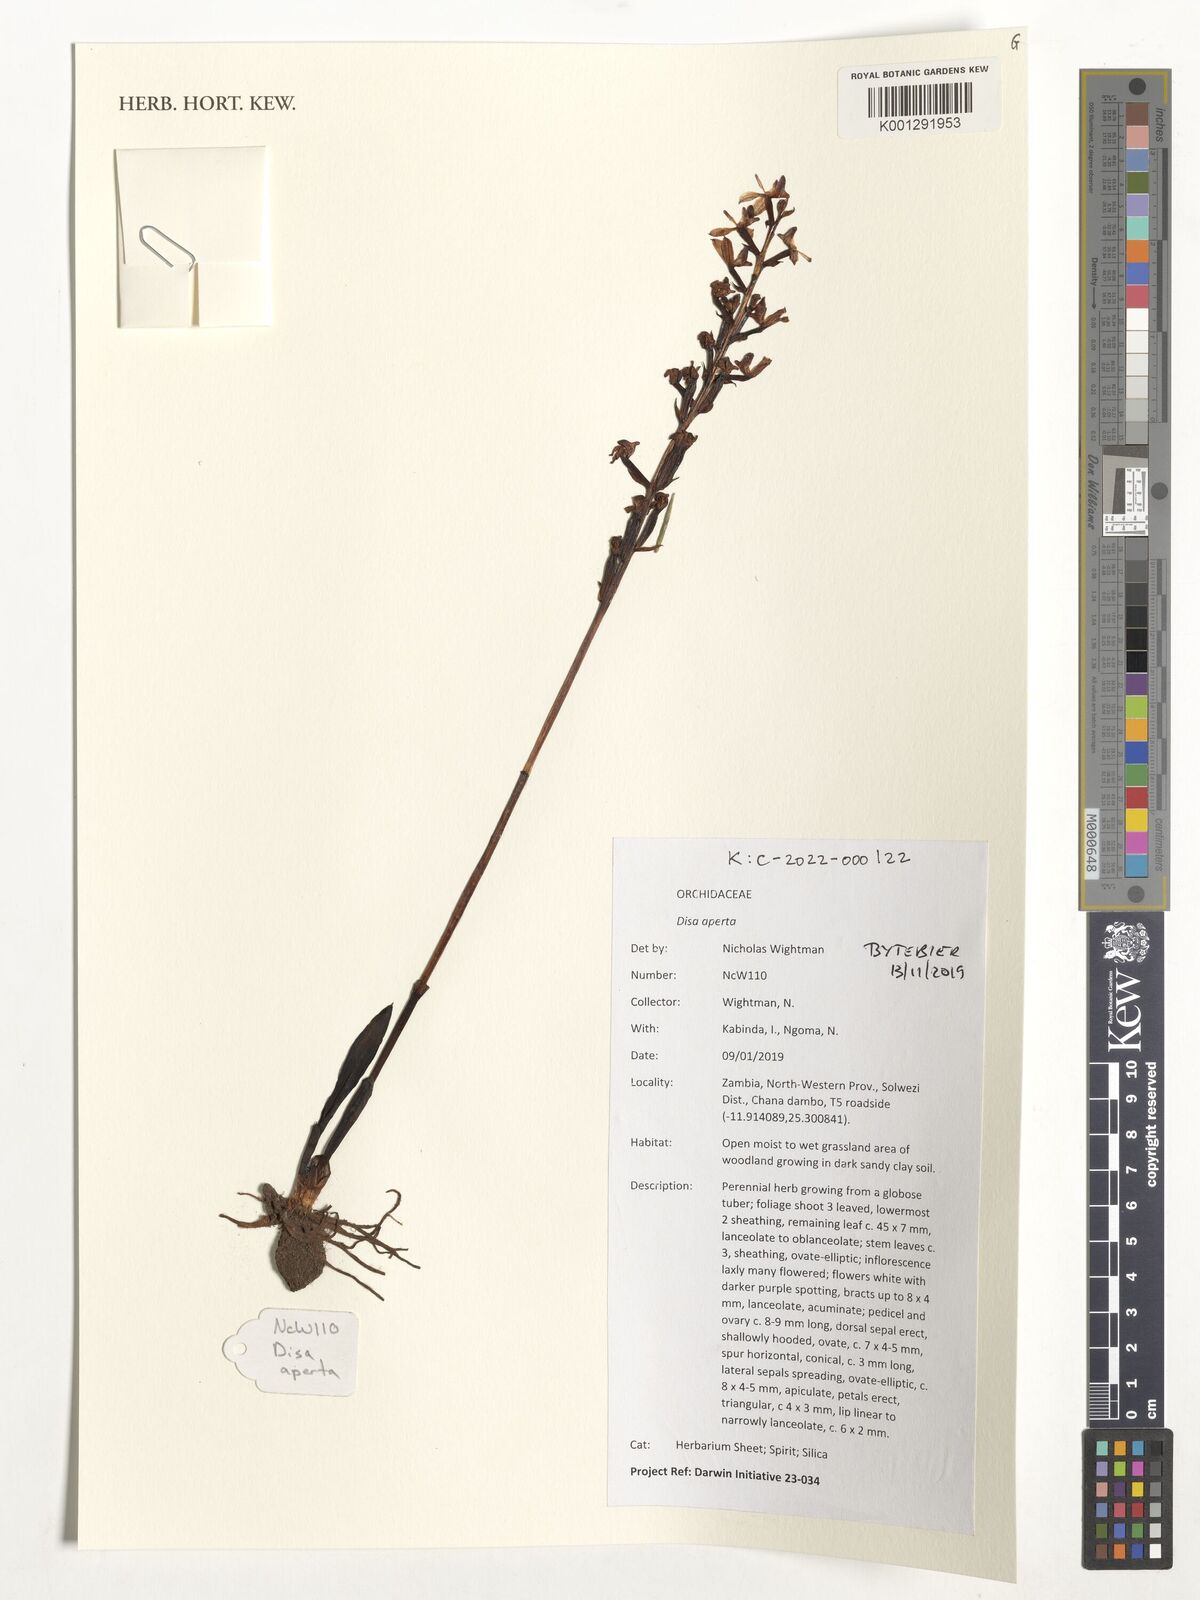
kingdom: Plantae
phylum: Tracheophyta
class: Liliopsida
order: Asparagales
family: Orchidaceae
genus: Disa
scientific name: Disa aperta
